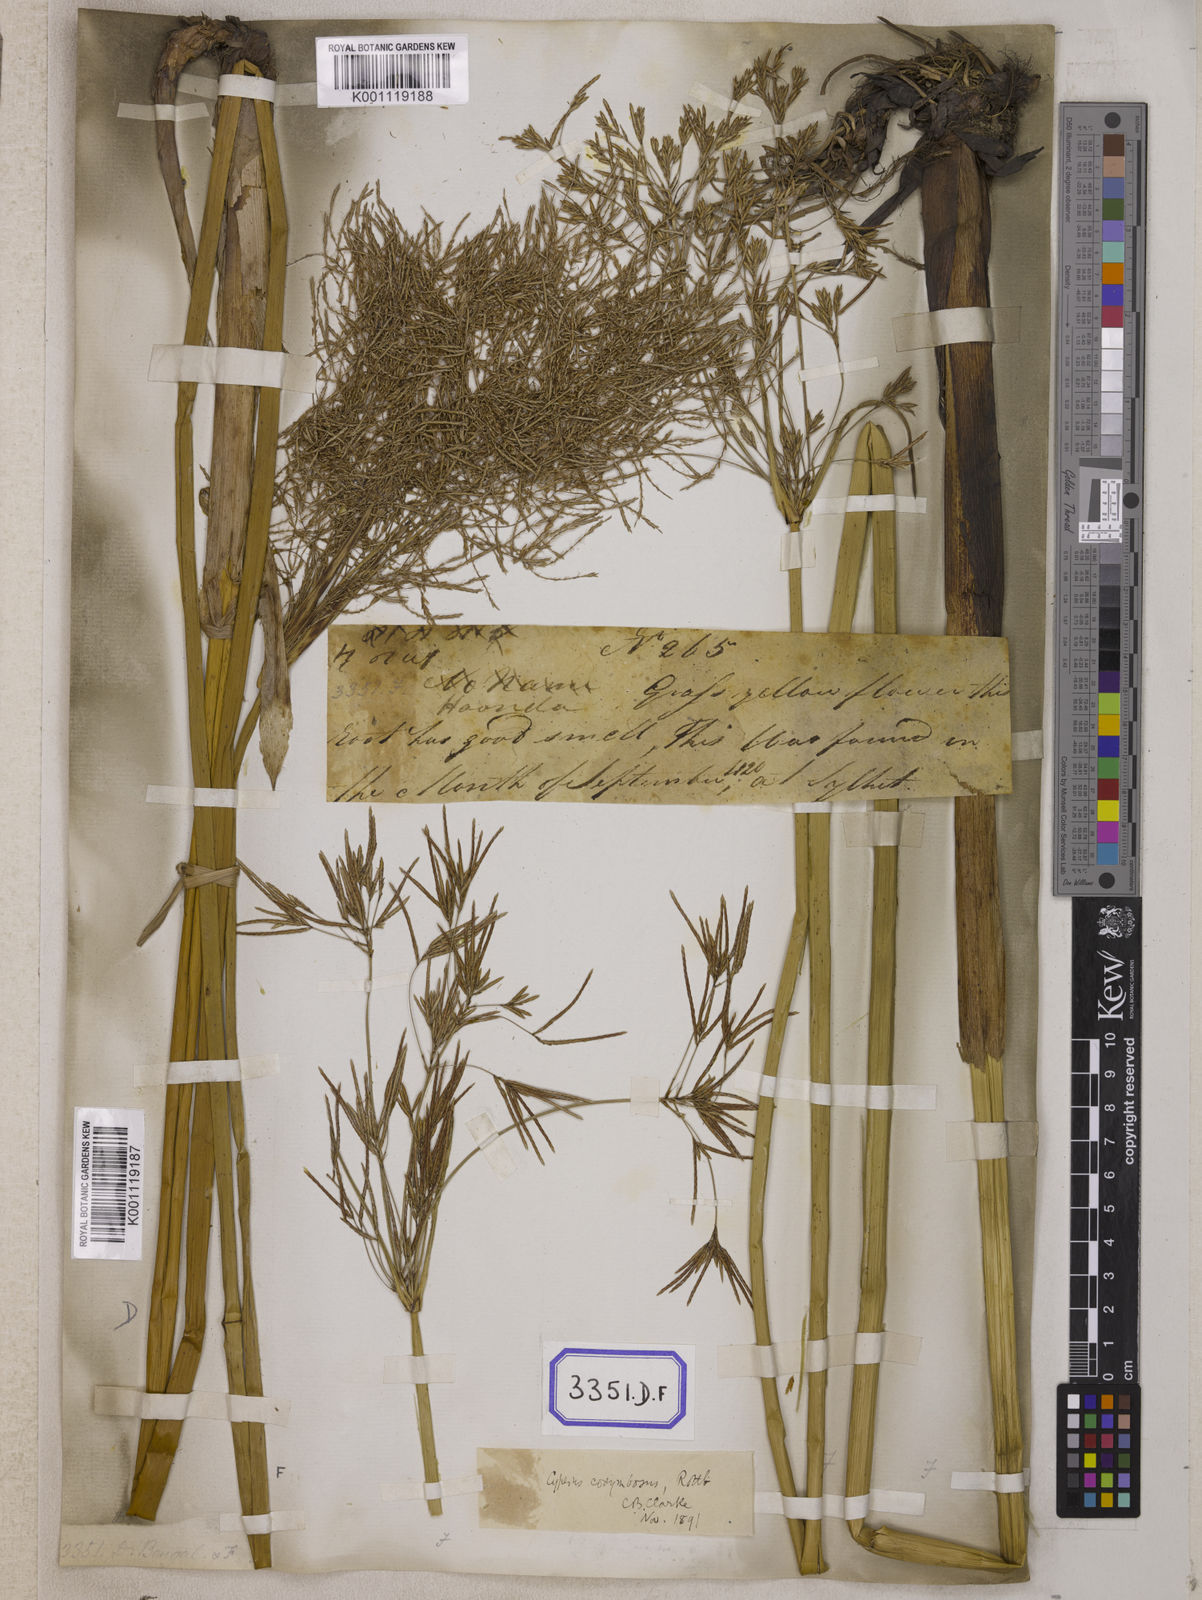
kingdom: Plantae
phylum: Tracheophyta
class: Liliopsida
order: Poales
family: Cyperaceae
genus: Cyperus
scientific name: Cyperus
